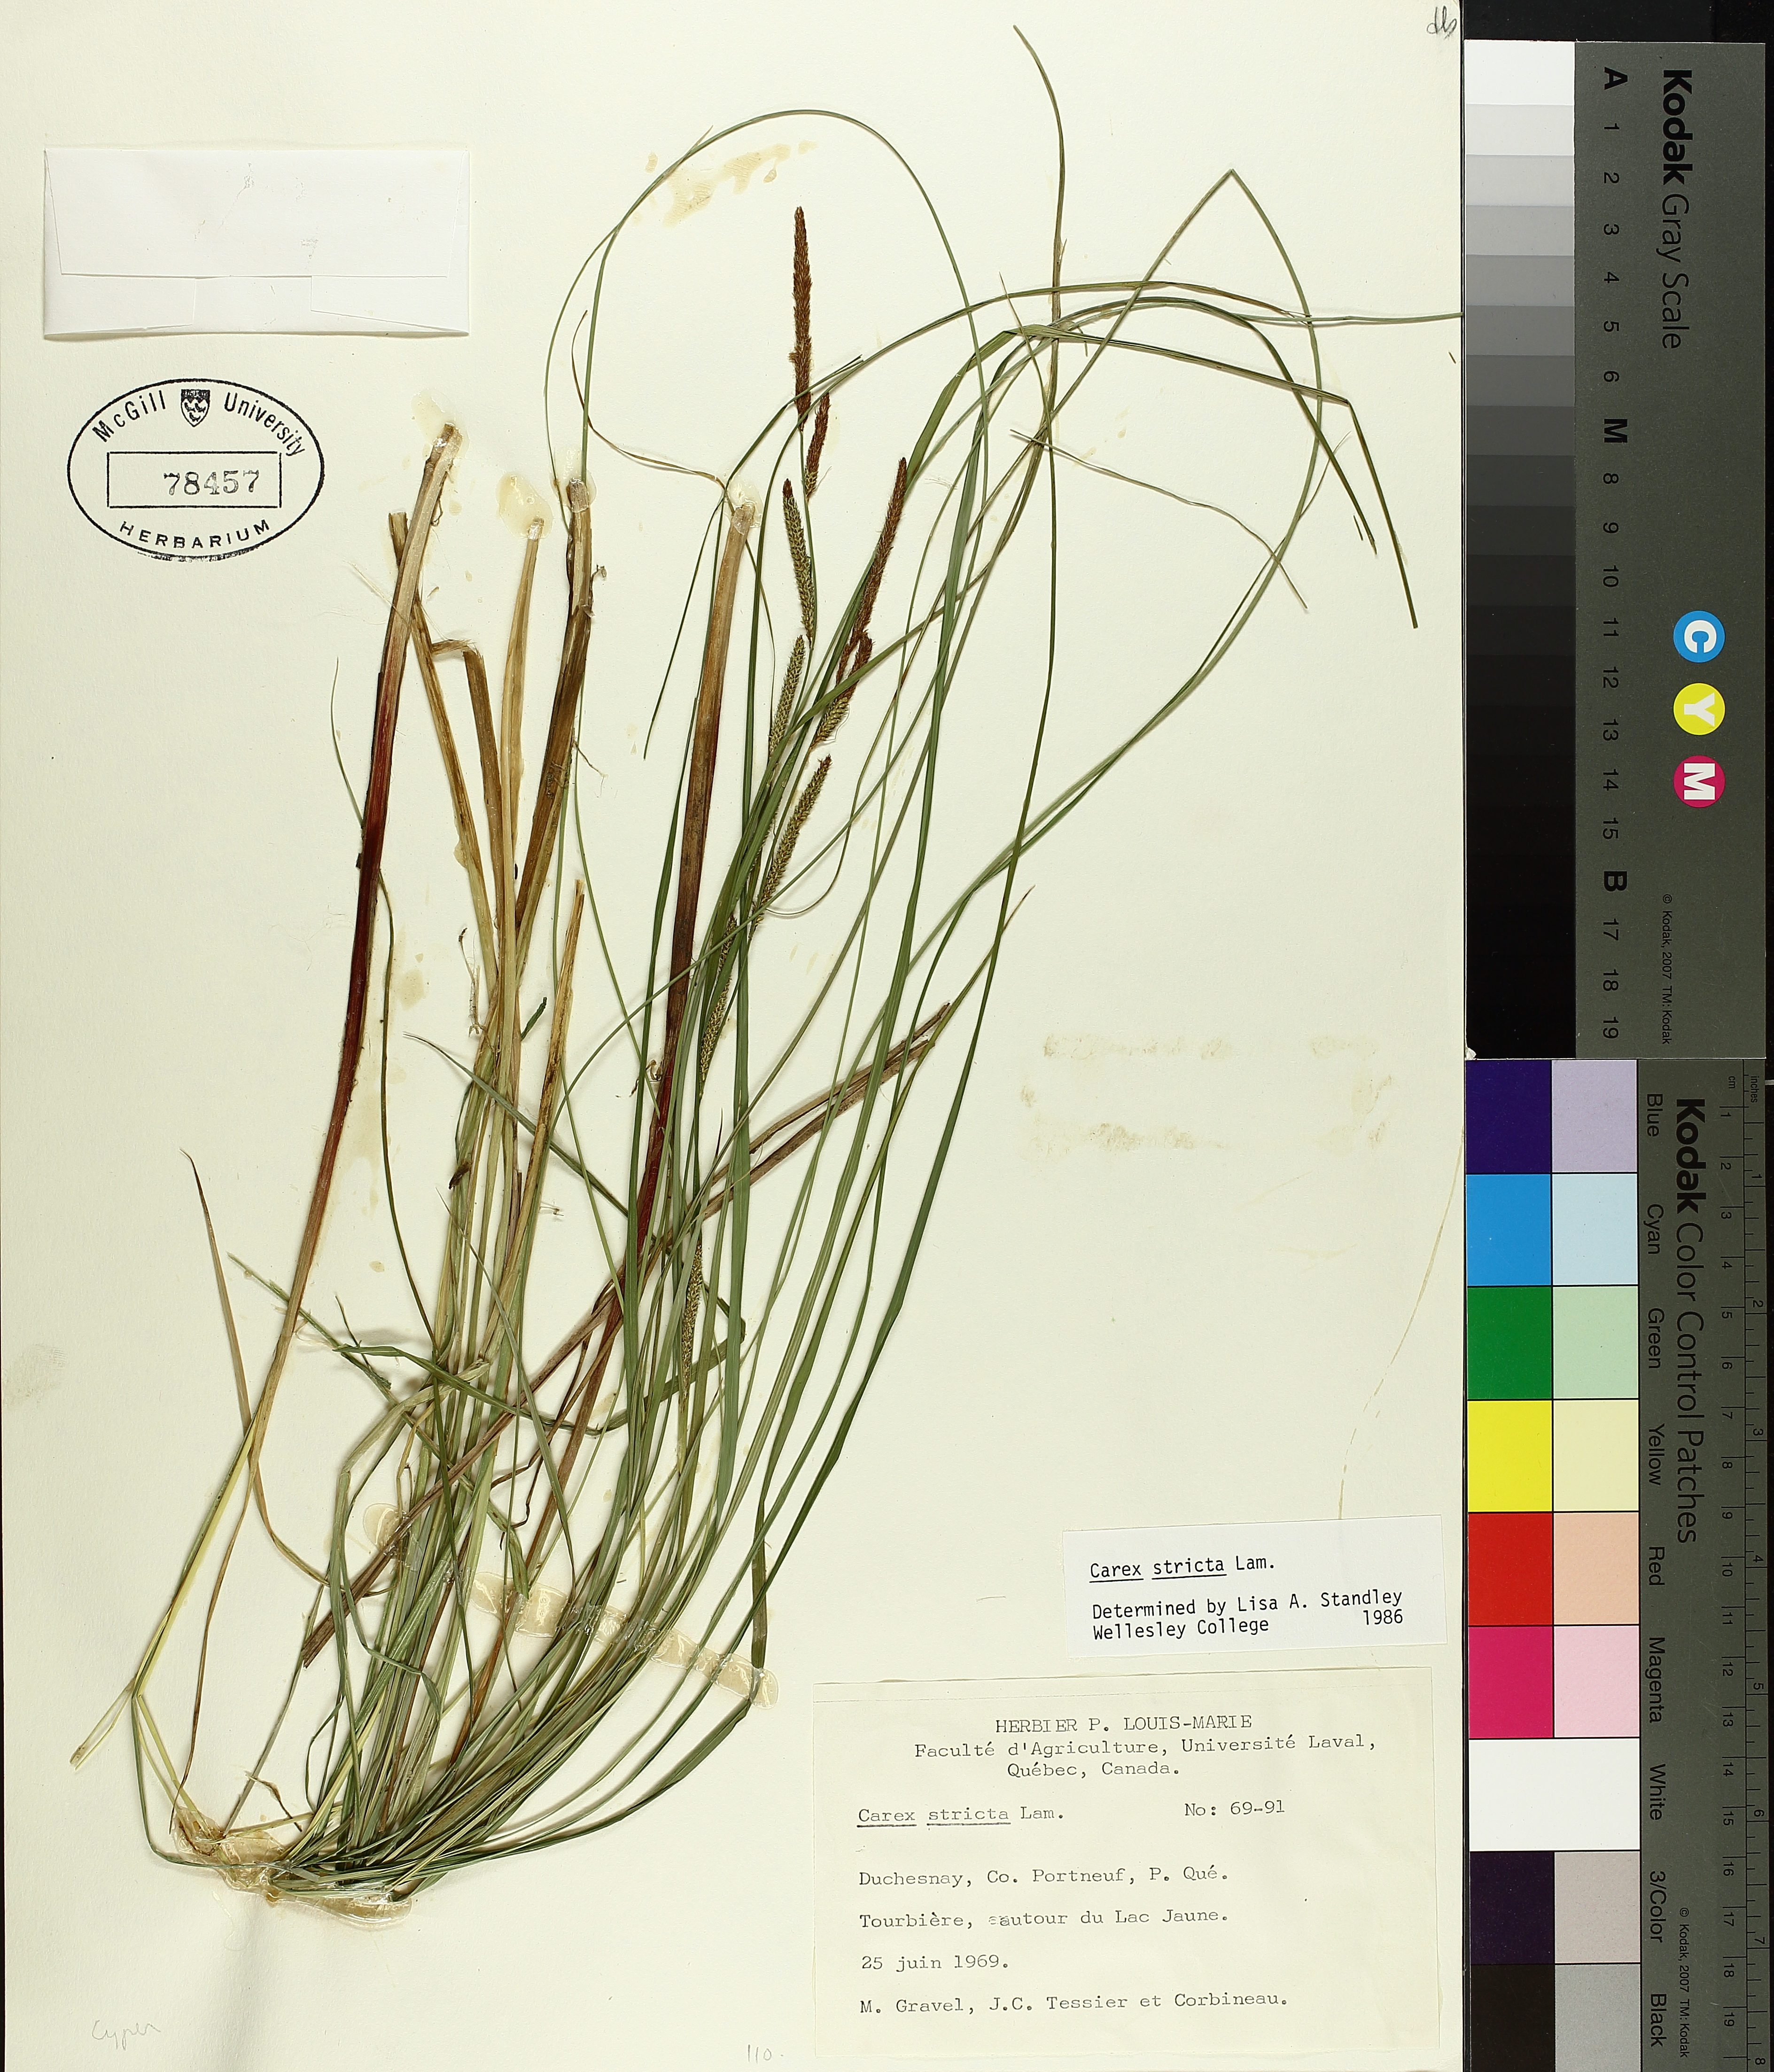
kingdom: Plantae
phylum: Tracheophyta
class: Liliopsida
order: Poales
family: Cyperaceae
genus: Carex
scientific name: Carex stricta
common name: Hummock sedge
